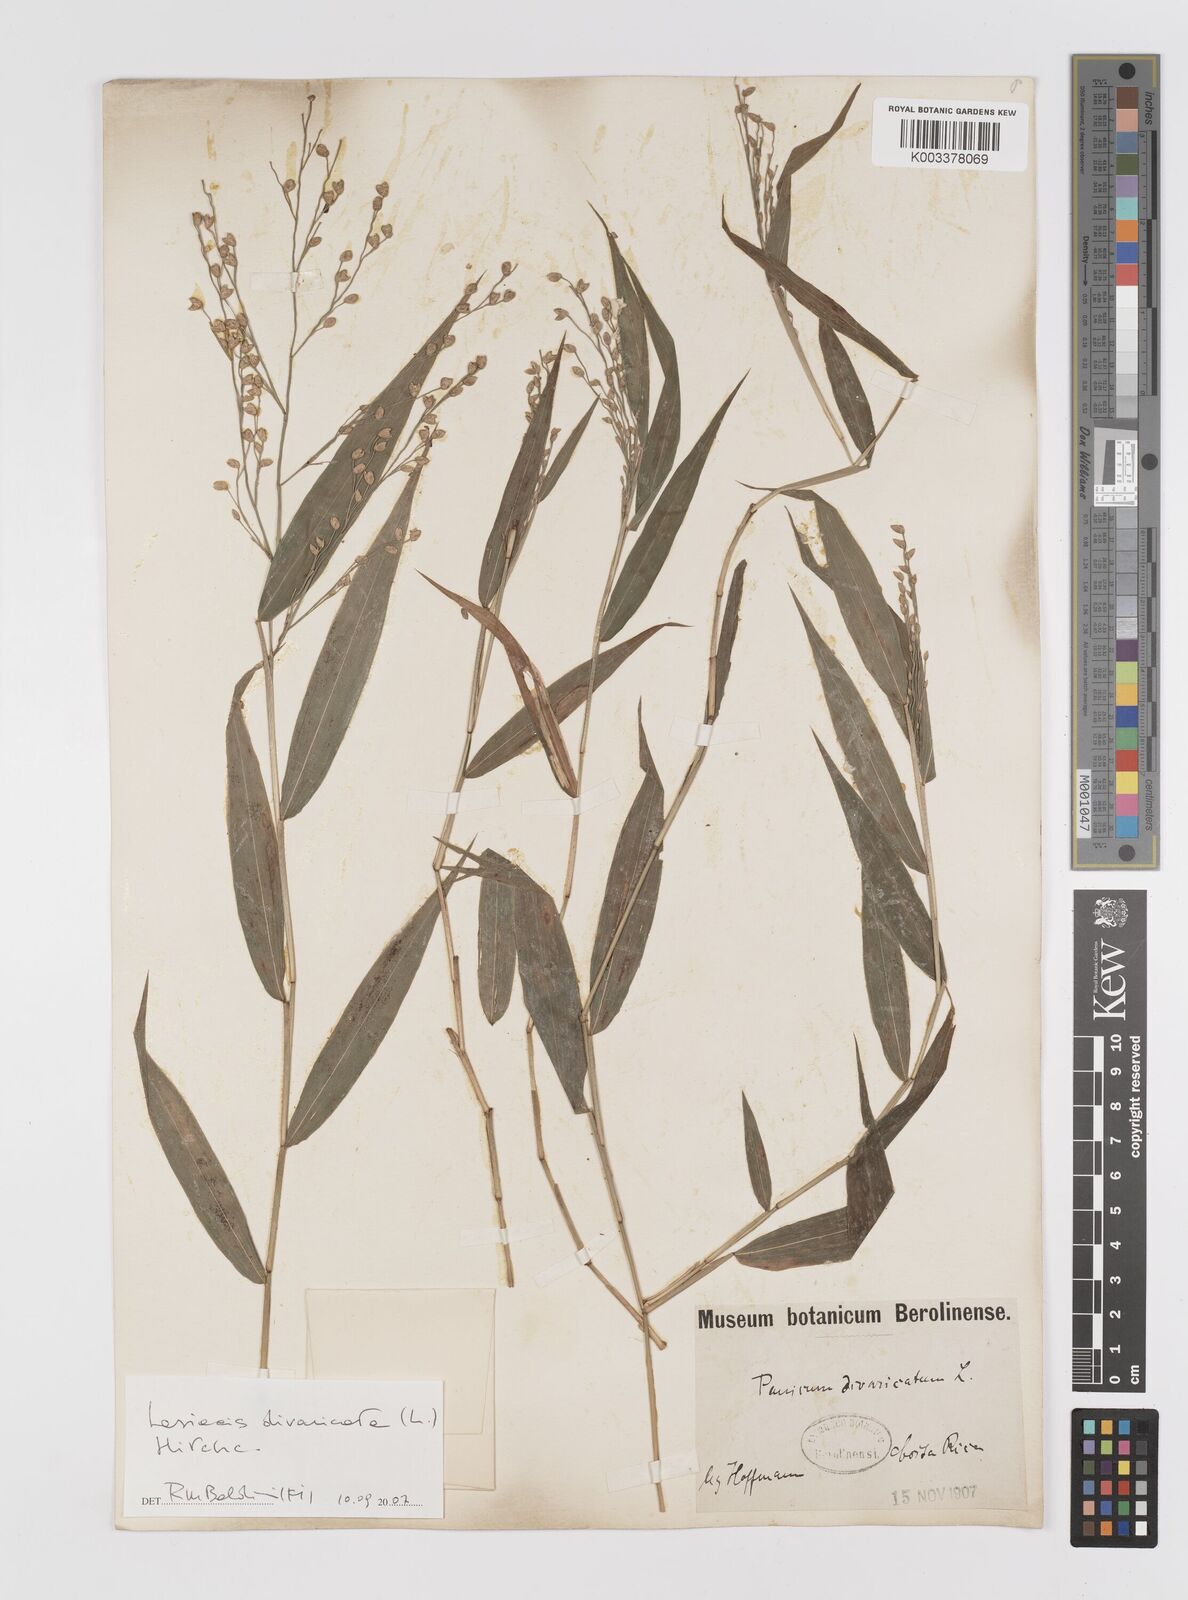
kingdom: Plantae
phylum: Tracheophyta
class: Liliopsida
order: Poales
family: Poaceae
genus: Lasiacis
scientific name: Lasiacis divaricata
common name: Smallcane
